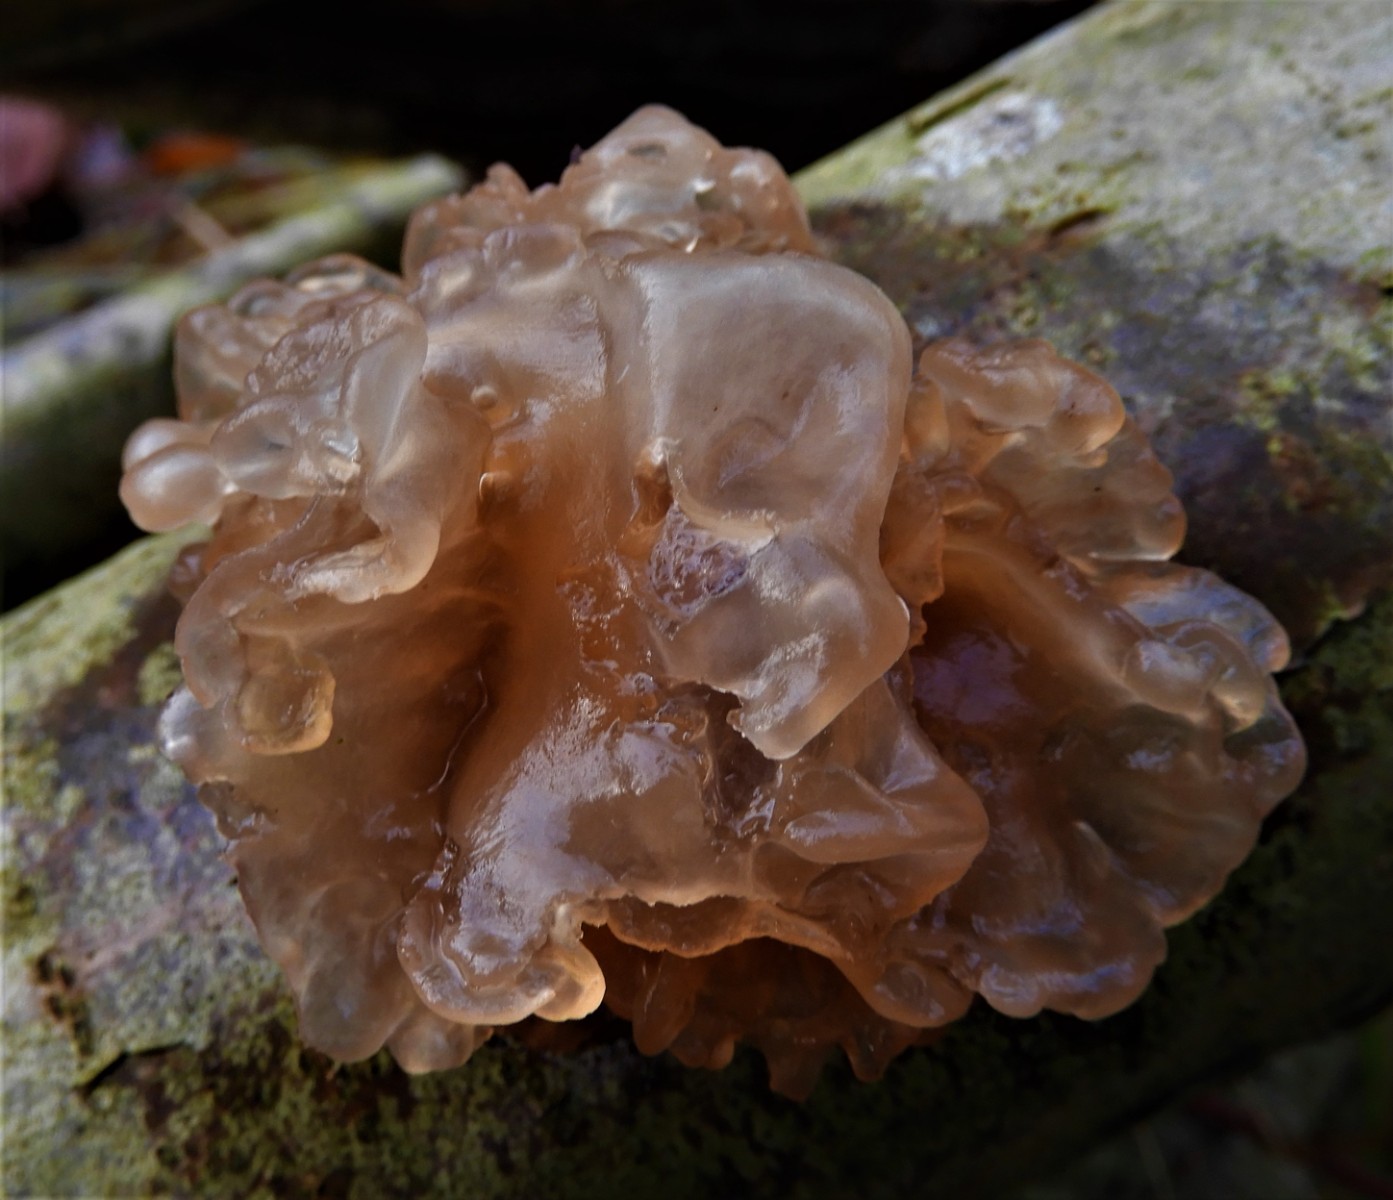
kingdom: Fungi
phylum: Basidiomycota
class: Tremellomycetes
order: Tremellales
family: Tremellaceae
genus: Phaeotremella
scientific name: Phaeotremella frondosa
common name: kæmpe-bævresvamp
